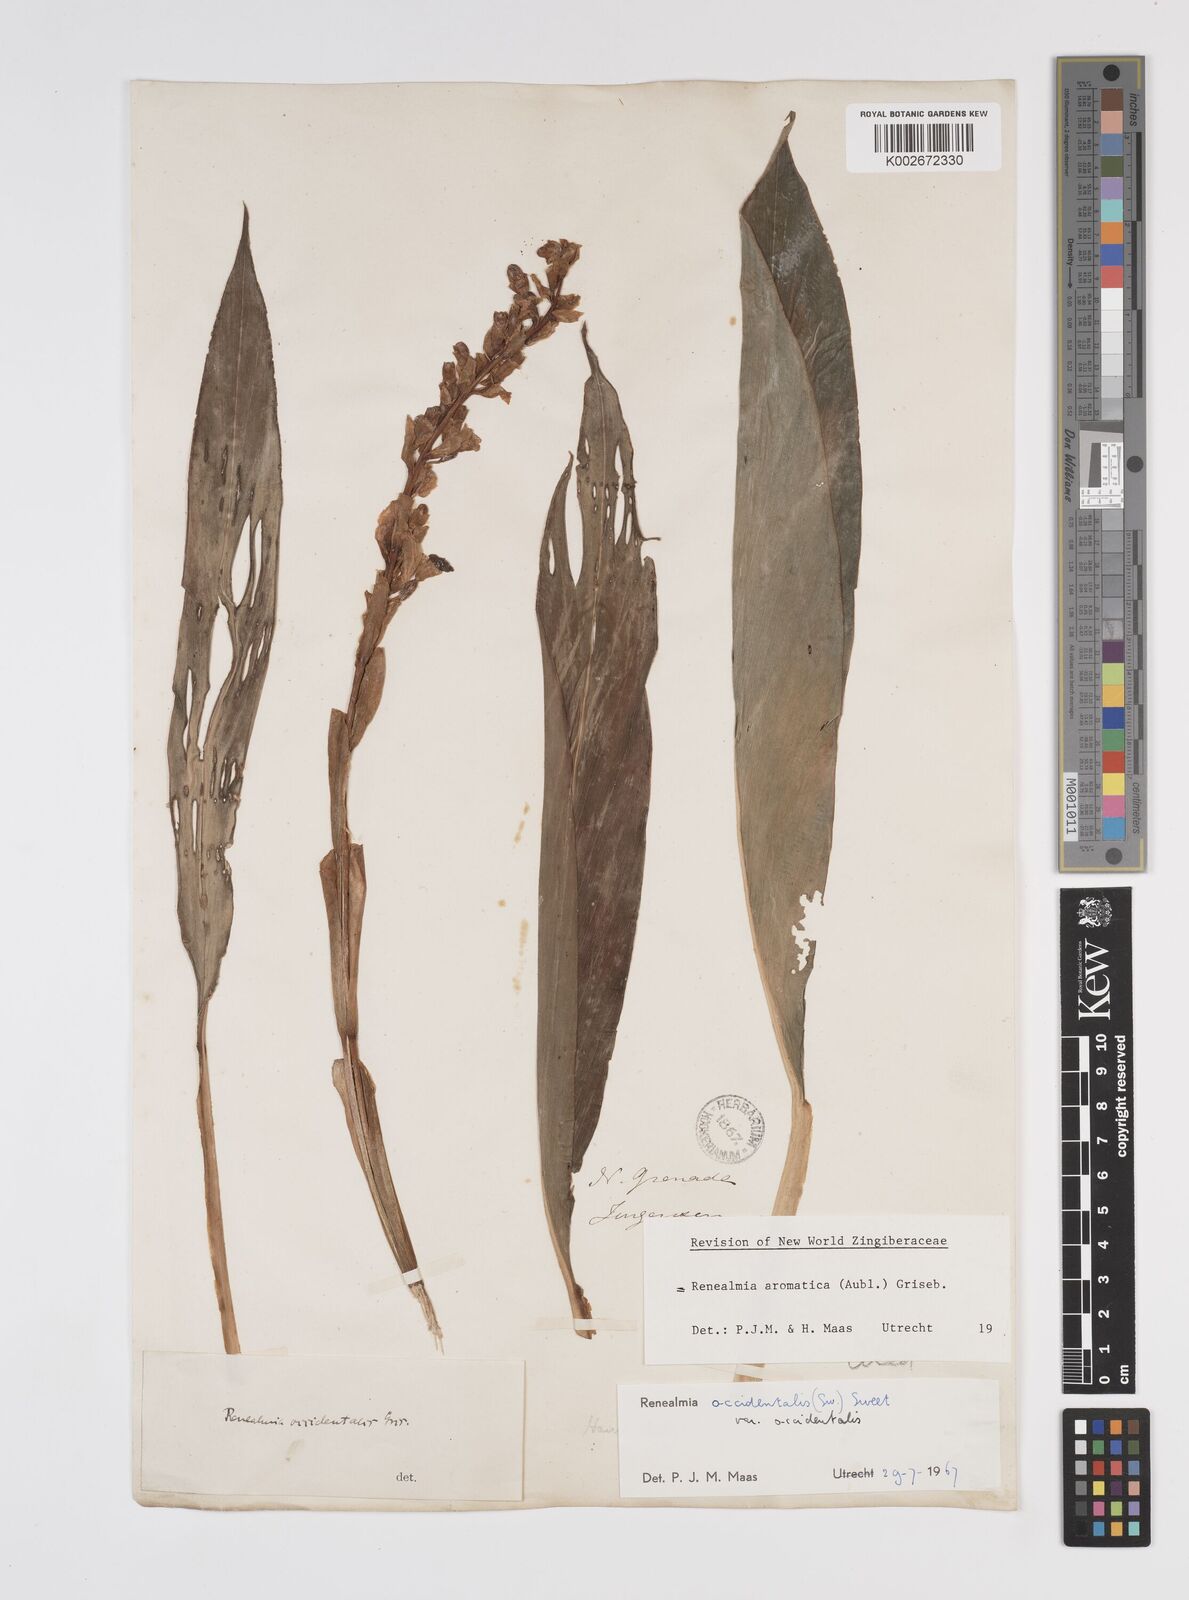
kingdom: Plantae
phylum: Tracheophyta
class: Liliopsida
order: Zingiberales
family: Zingiberaceae
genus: Renealmia
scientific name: Renealmia aromatica
